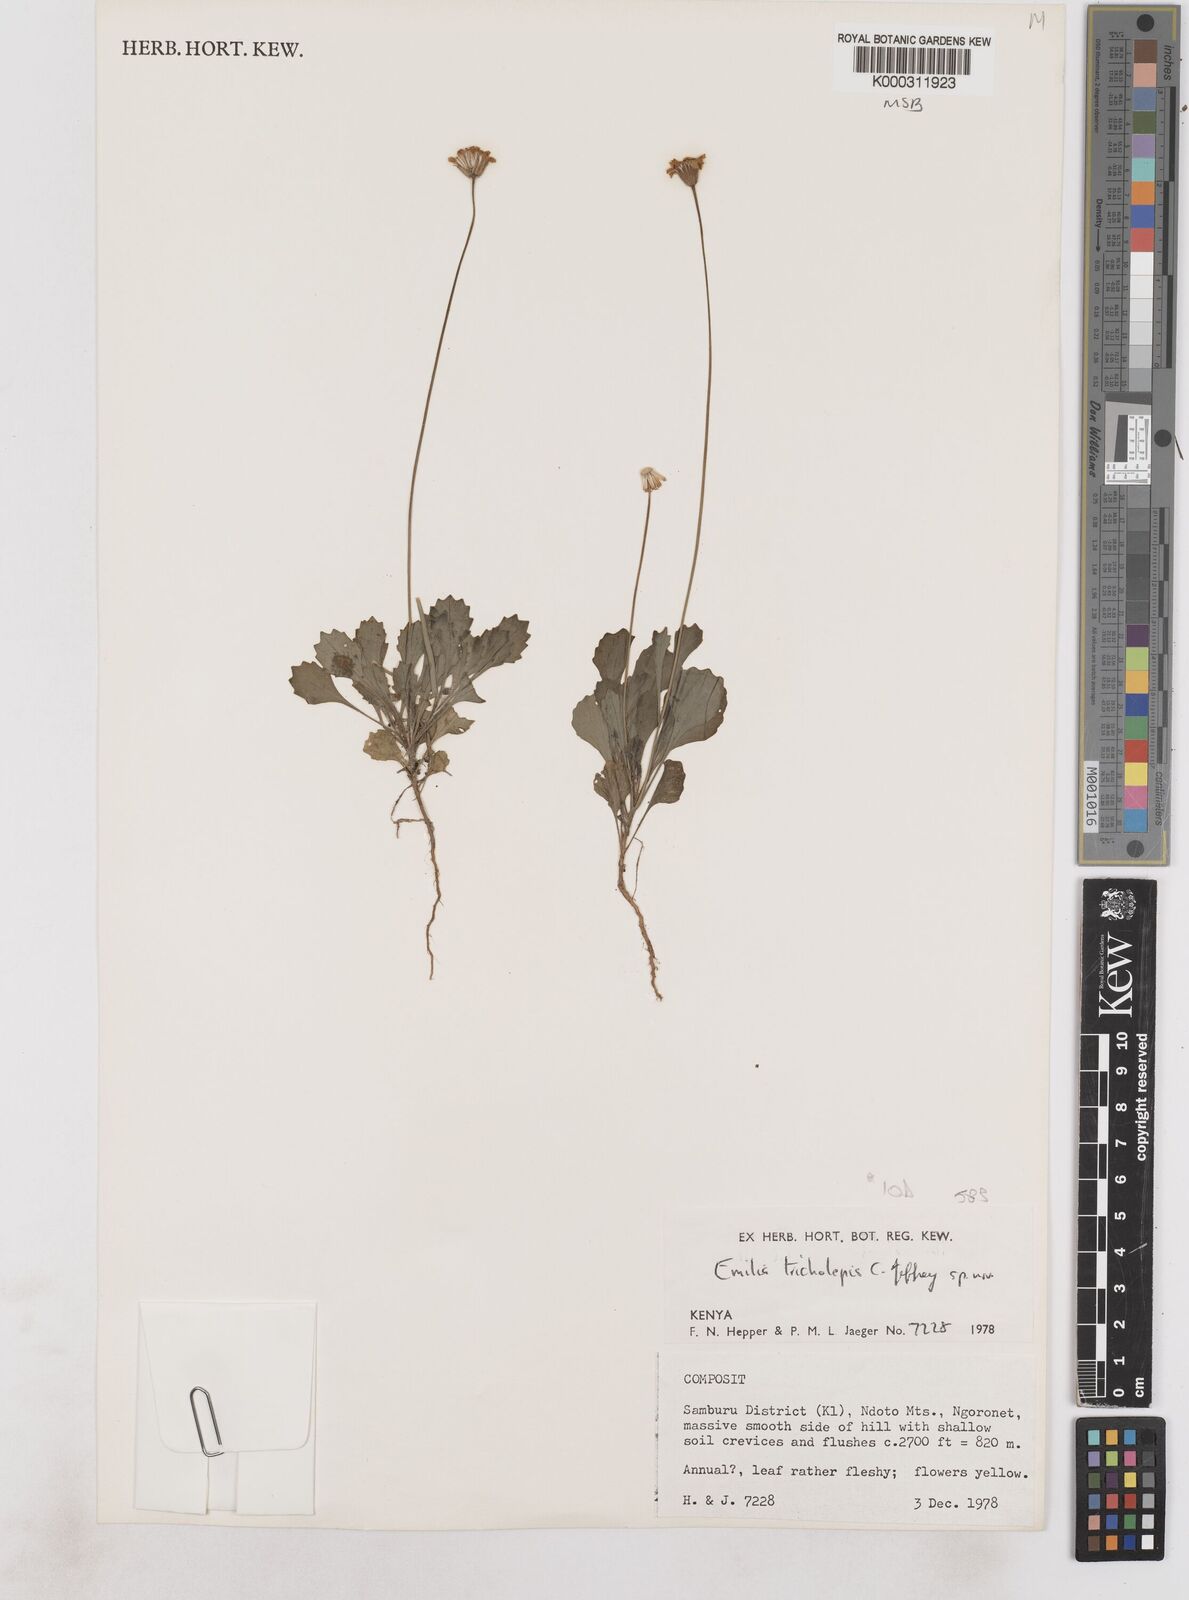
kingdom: Plantae
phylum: Tracheophyta
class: Magnoliopsida
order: Asterales
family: Asteraceae
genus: Emilia
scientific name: Emilia tricholepis
